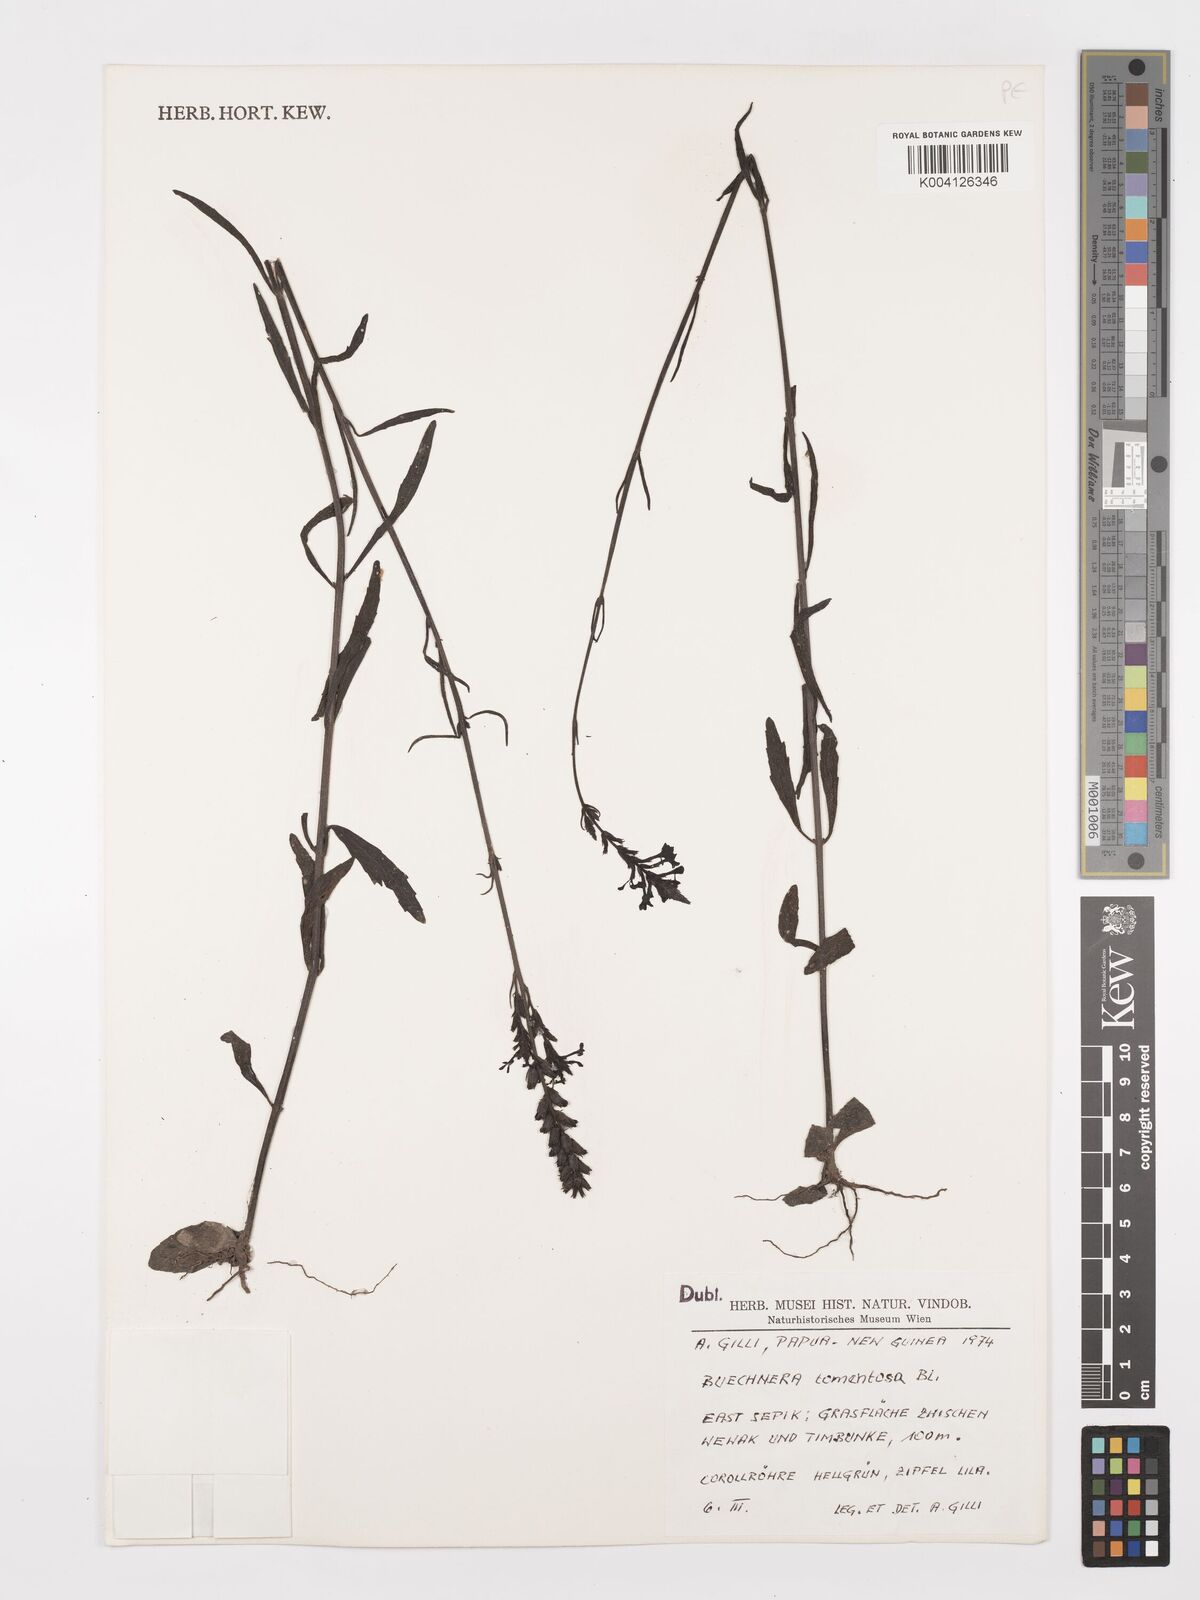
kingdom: Plantae
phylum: Tracheophyta
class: Magnoliopsida
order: Lamiales
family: Orobanchaceae
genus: Buchnera
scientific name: Buchnera tomentosa
